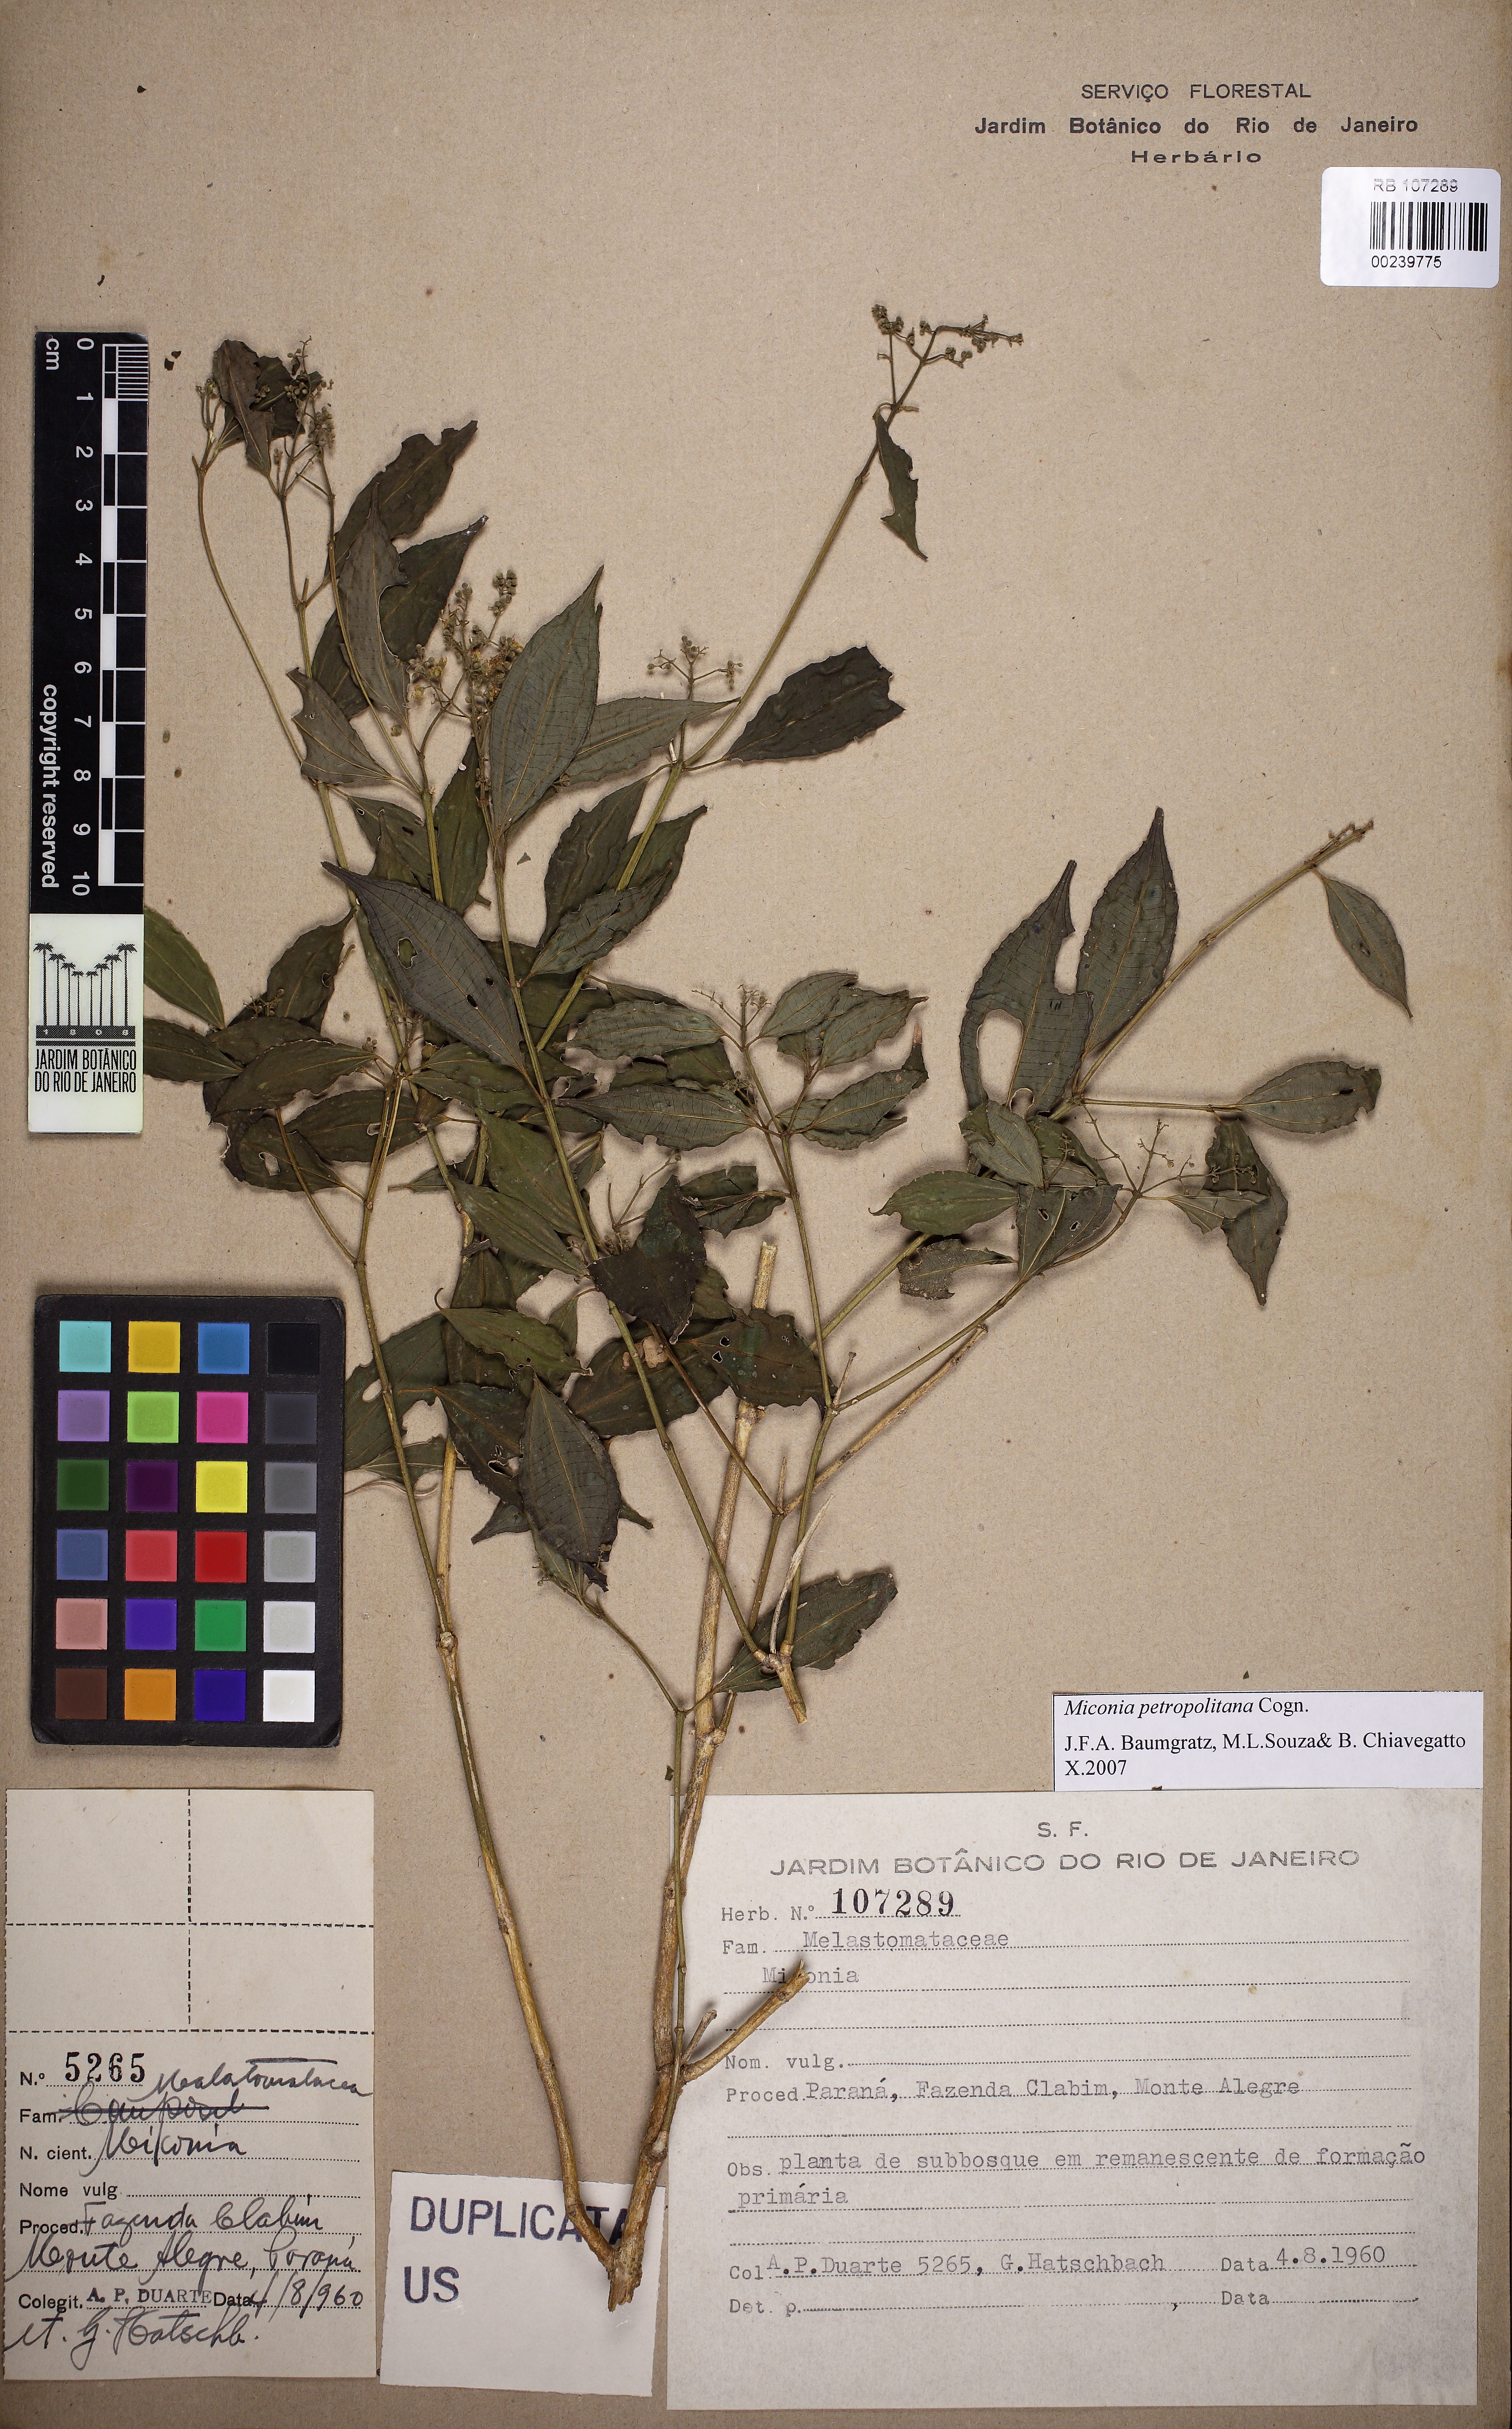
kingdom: Plantae
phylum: Tracheophyta
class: Magnoliopsida
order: Myrtales
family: Melastomataceae
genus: Miconia
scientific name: Miconia petropolitana
